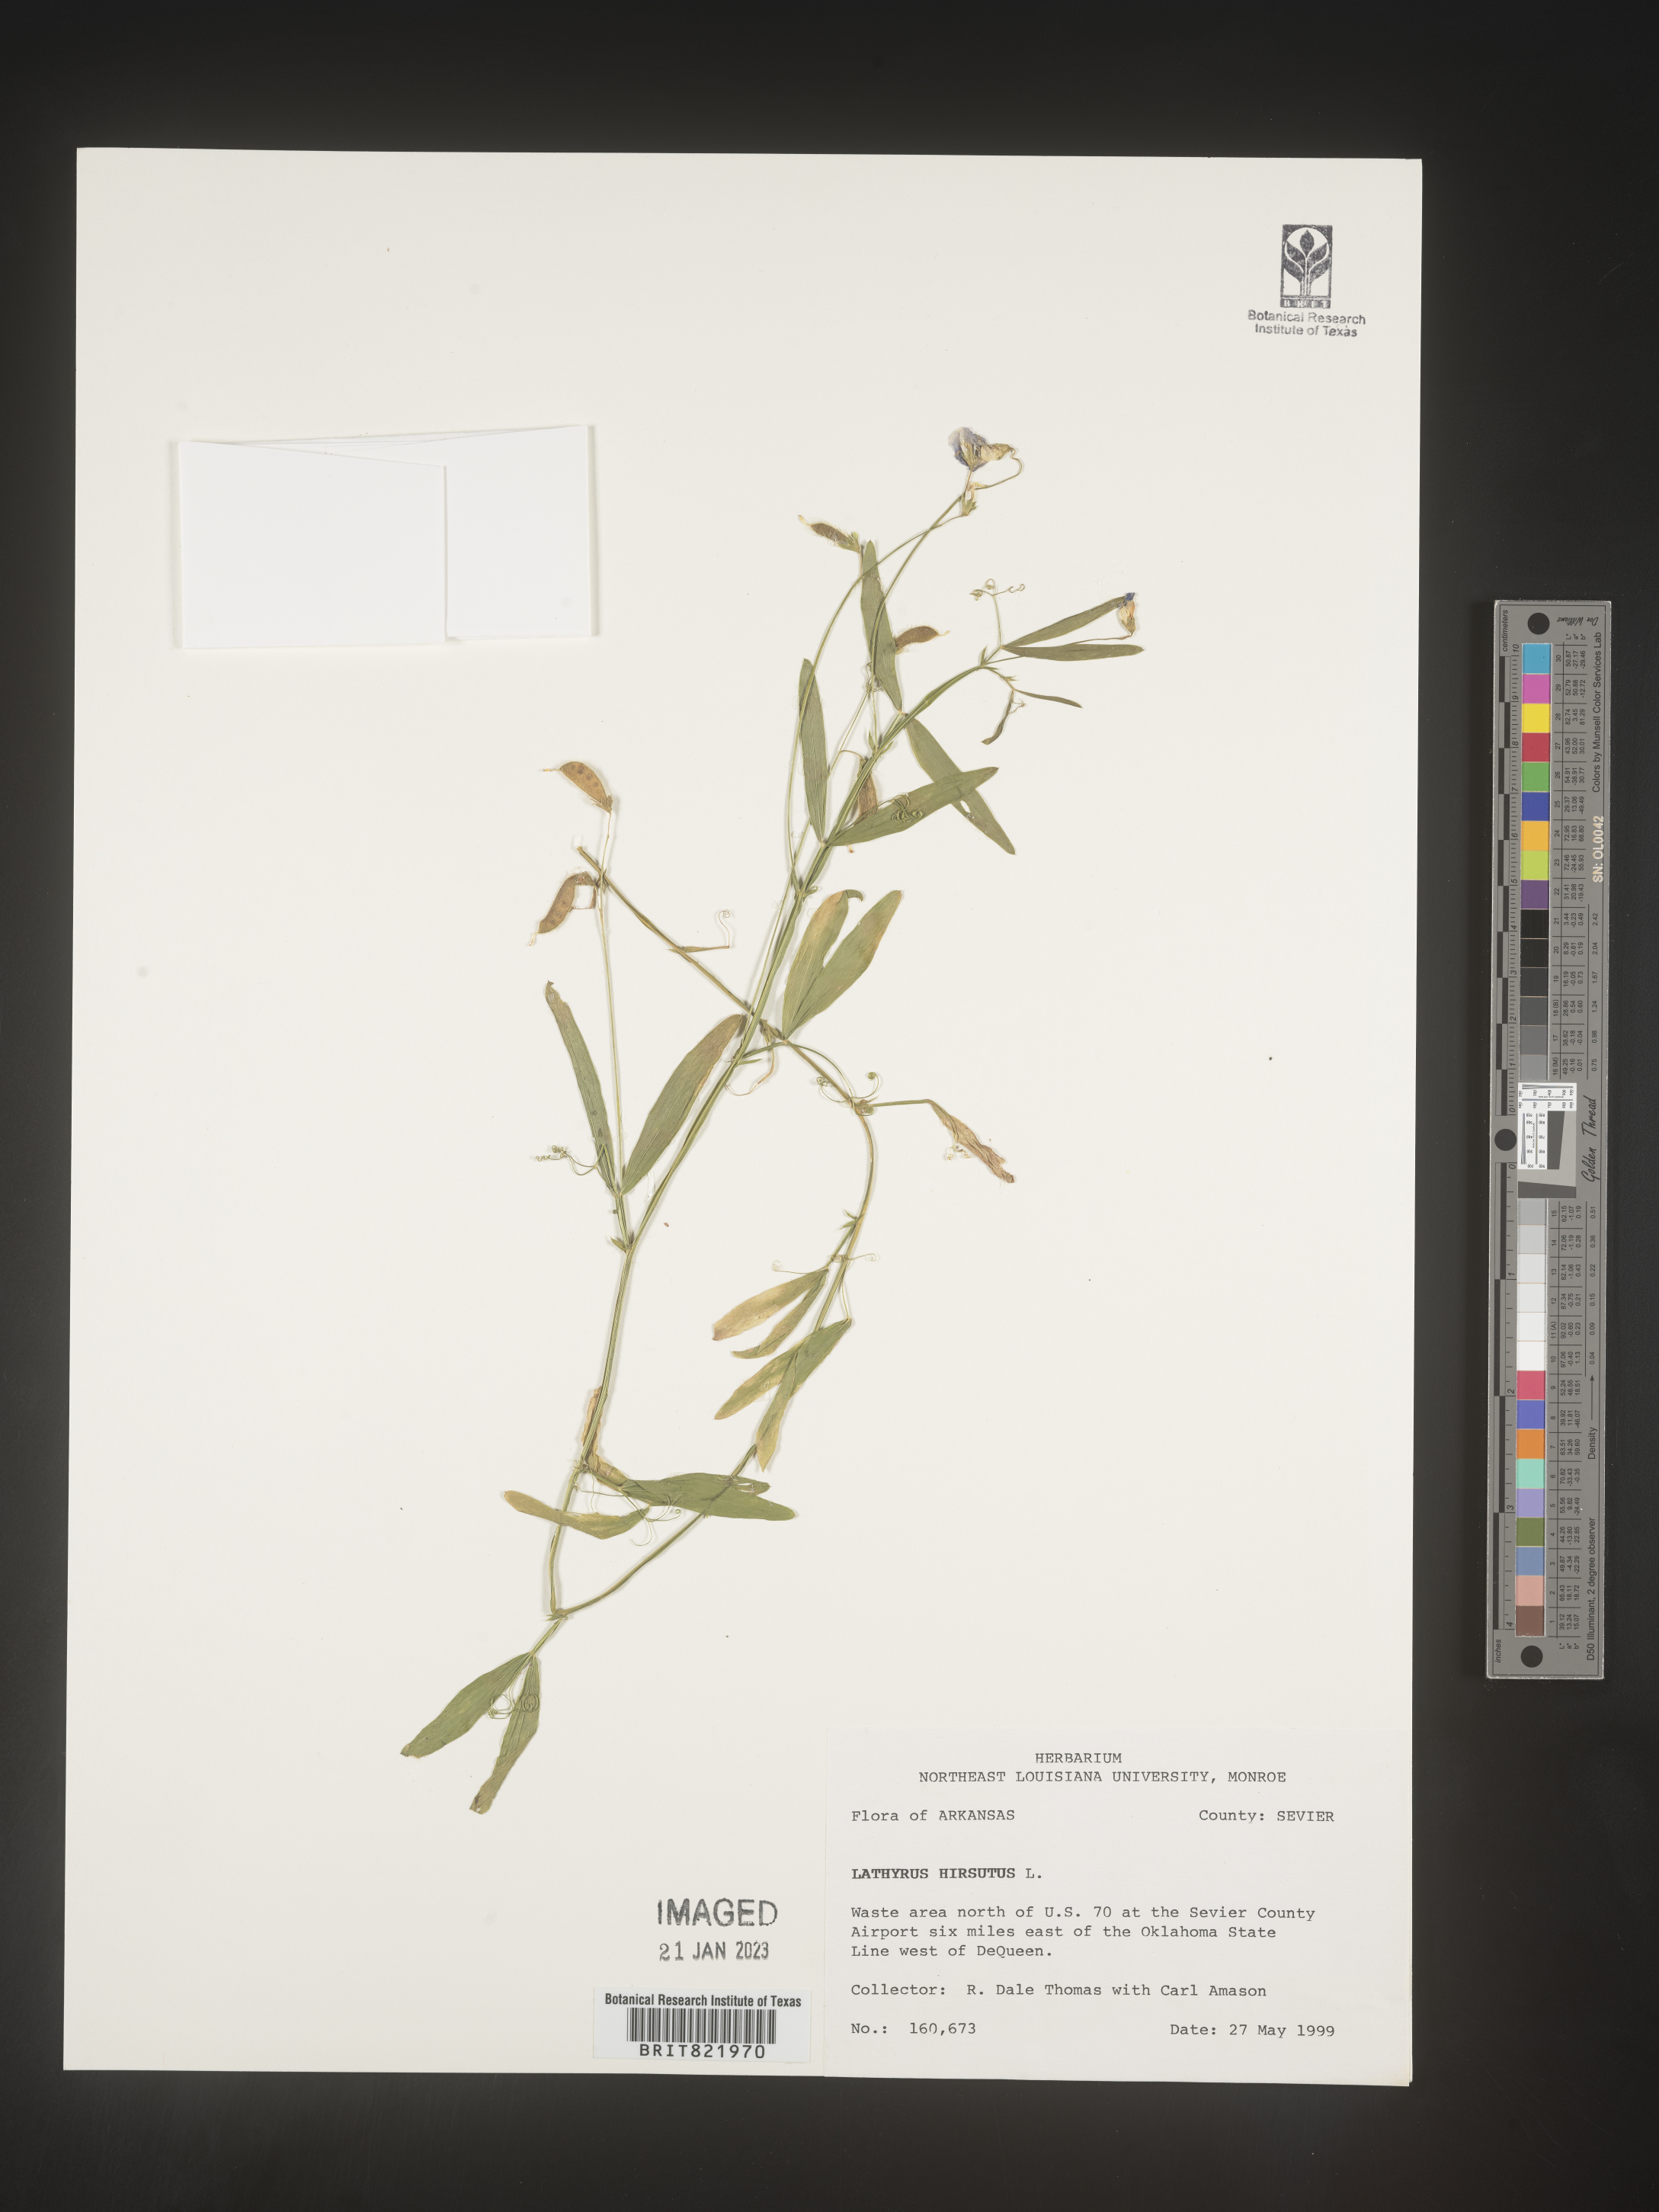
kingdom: Plantae
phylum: Tracheophyta
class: Magnoliopsida
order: Fabales
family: Fabaceae
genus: Lathyrus
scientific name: Lathyrus hirsutus
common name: Hairy vetchling
